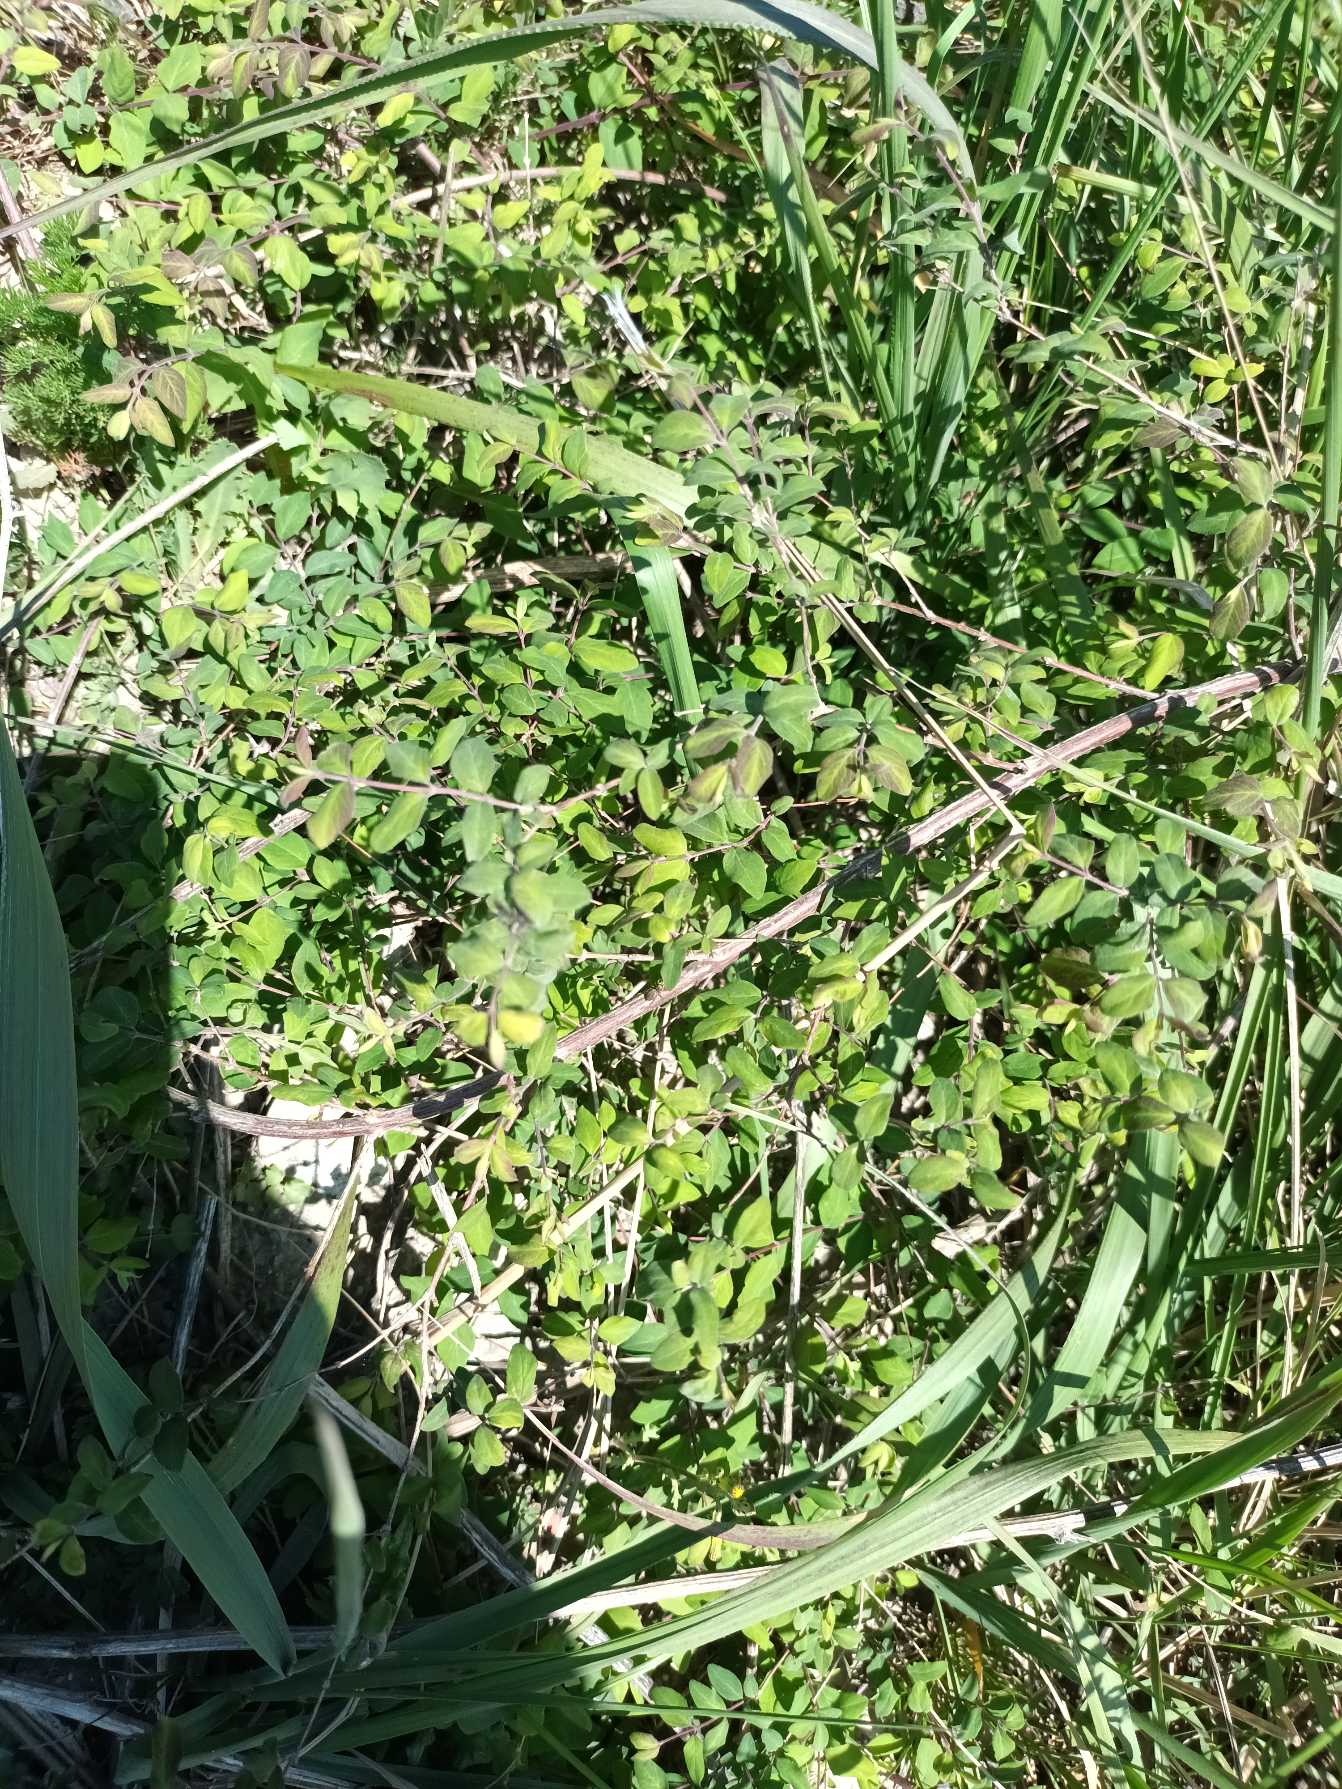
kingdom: Plantae
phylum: Tracheophyta
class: Magnoliopsida
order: Dipsacales
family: Caprifoliaceae
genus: Symphoricarpos
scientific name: Symphoricarpos chenaultii
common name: Rød snebær
